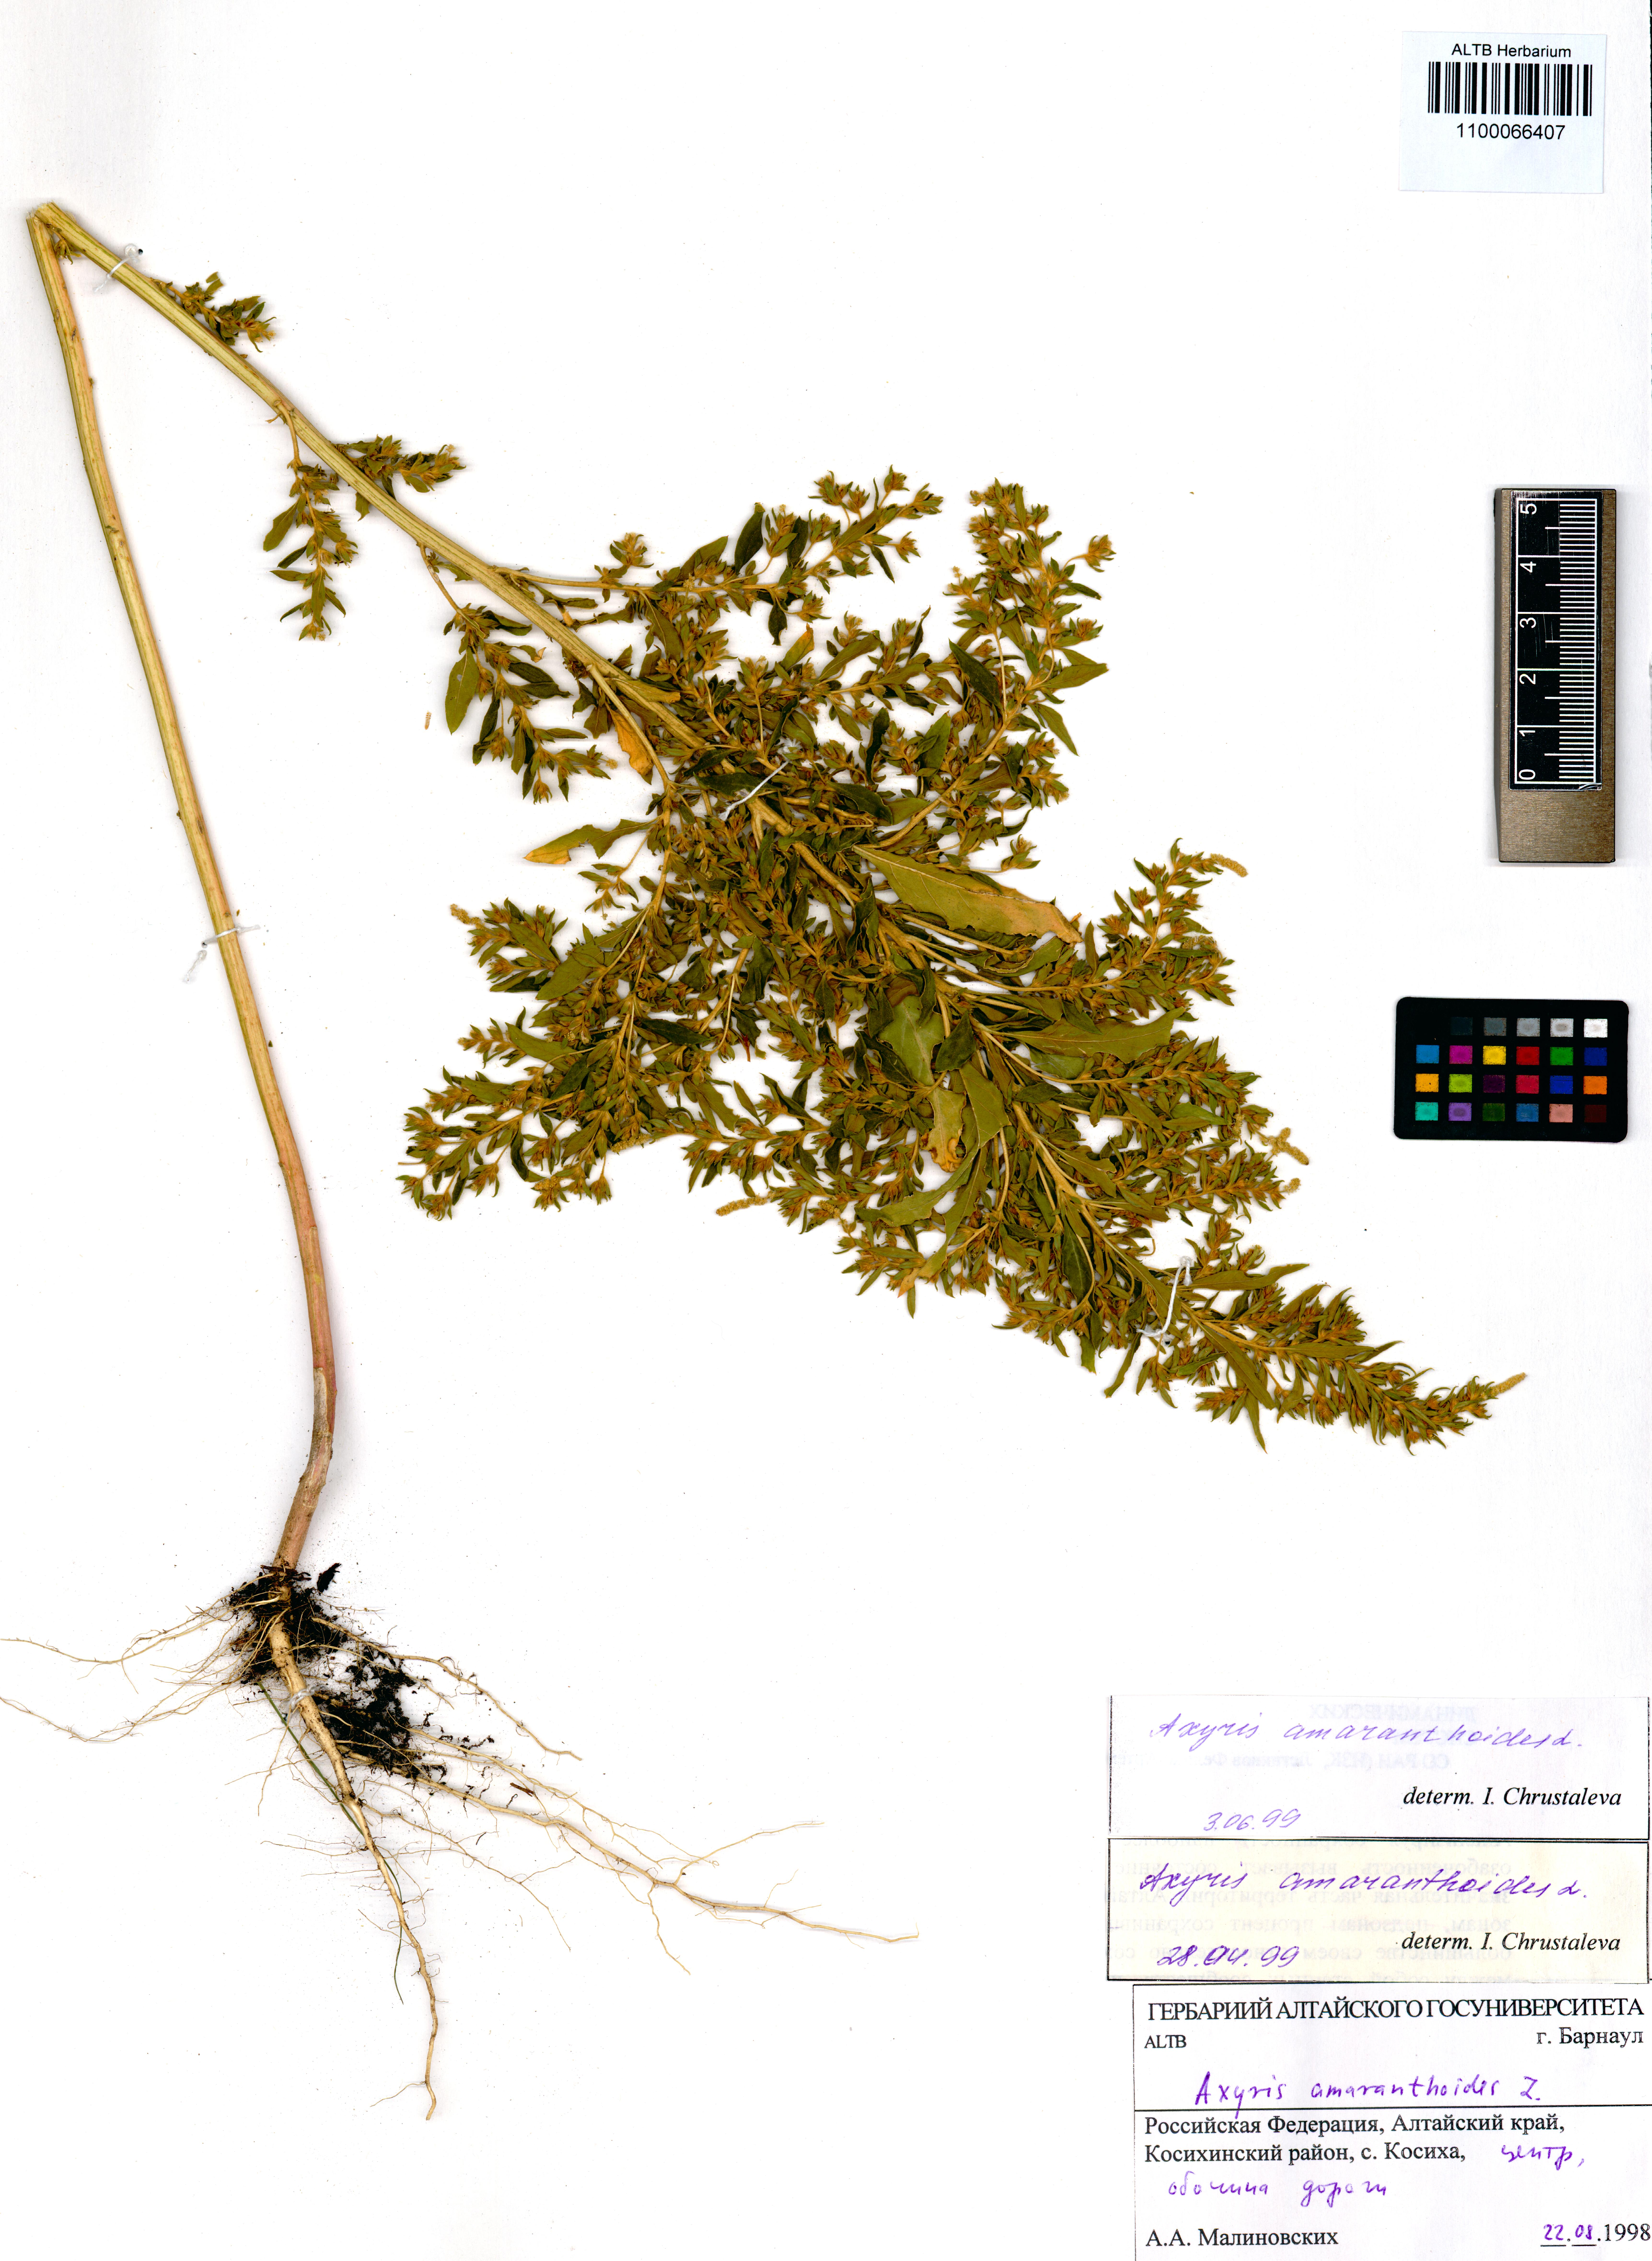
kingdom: Plantae
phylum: Tracheophyta
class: Magnoliopsida
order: Caryophyllales
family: Amaranthaceae
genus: Axyris
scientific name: Axyris amaranthoides
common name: Russian pigweed
